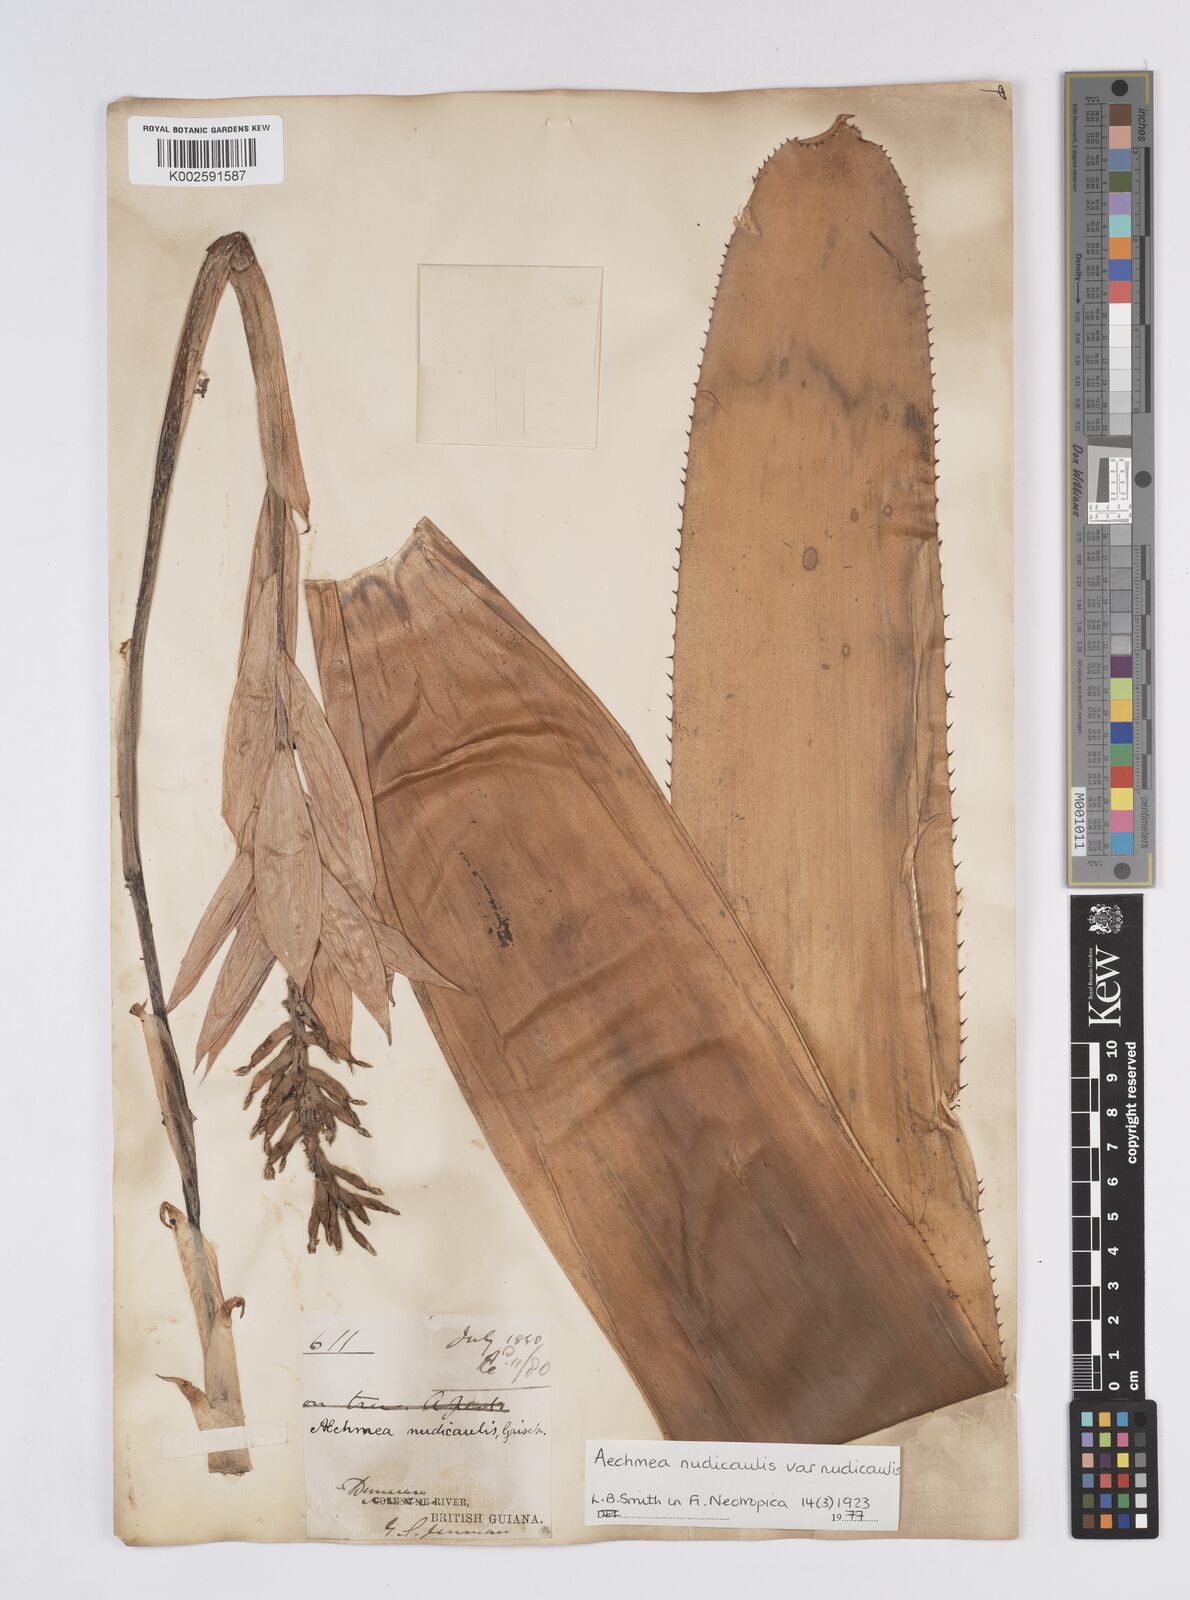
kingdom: Plantae
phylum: Tracheophyta
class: Liliopsida
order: Poales
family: Bromeliaceae
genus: Aechmea
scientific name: Aechmea nudicaulis
